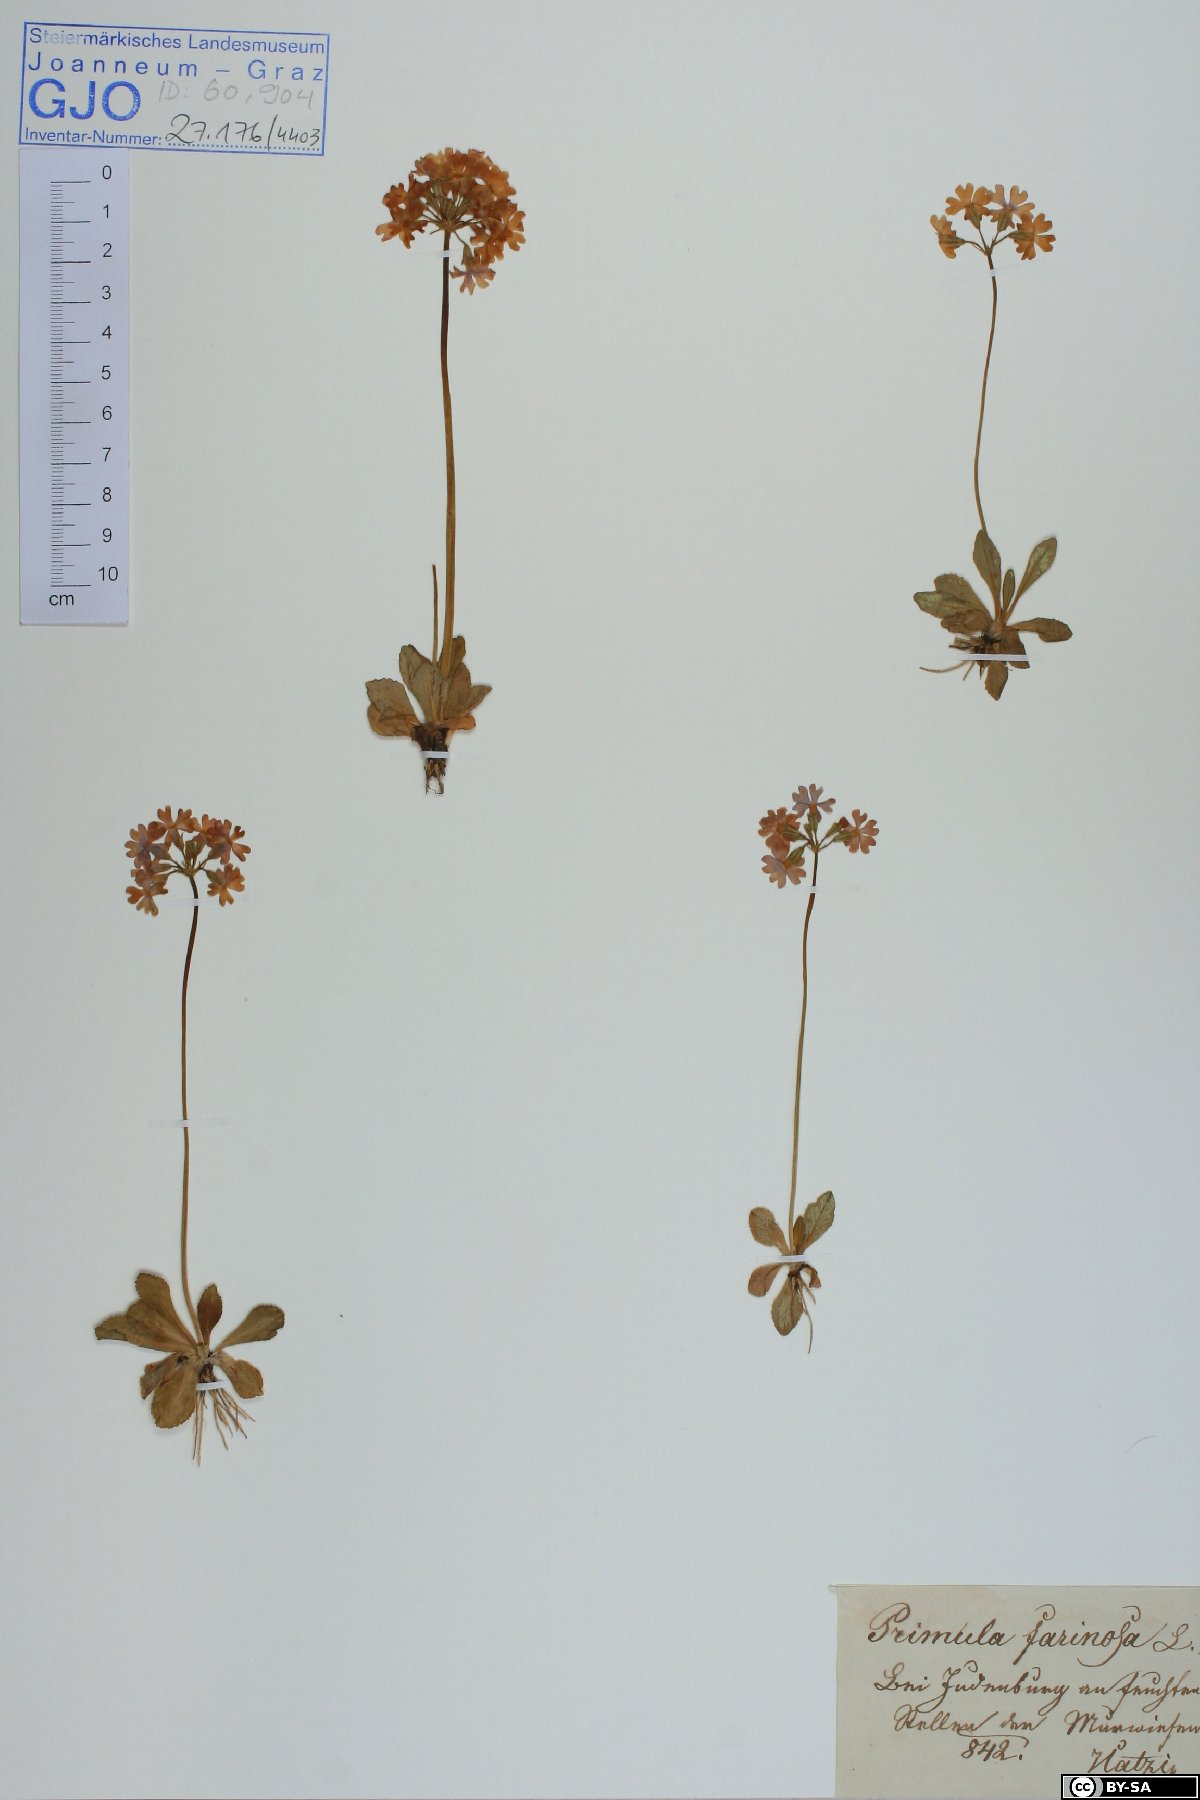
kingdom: Plantae
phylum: Tracheophyta
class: Magnoliopsida
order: Ericales
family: Primulaceae
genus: Primula
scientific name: Primula farinosa
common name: Bird's-eye primrose
